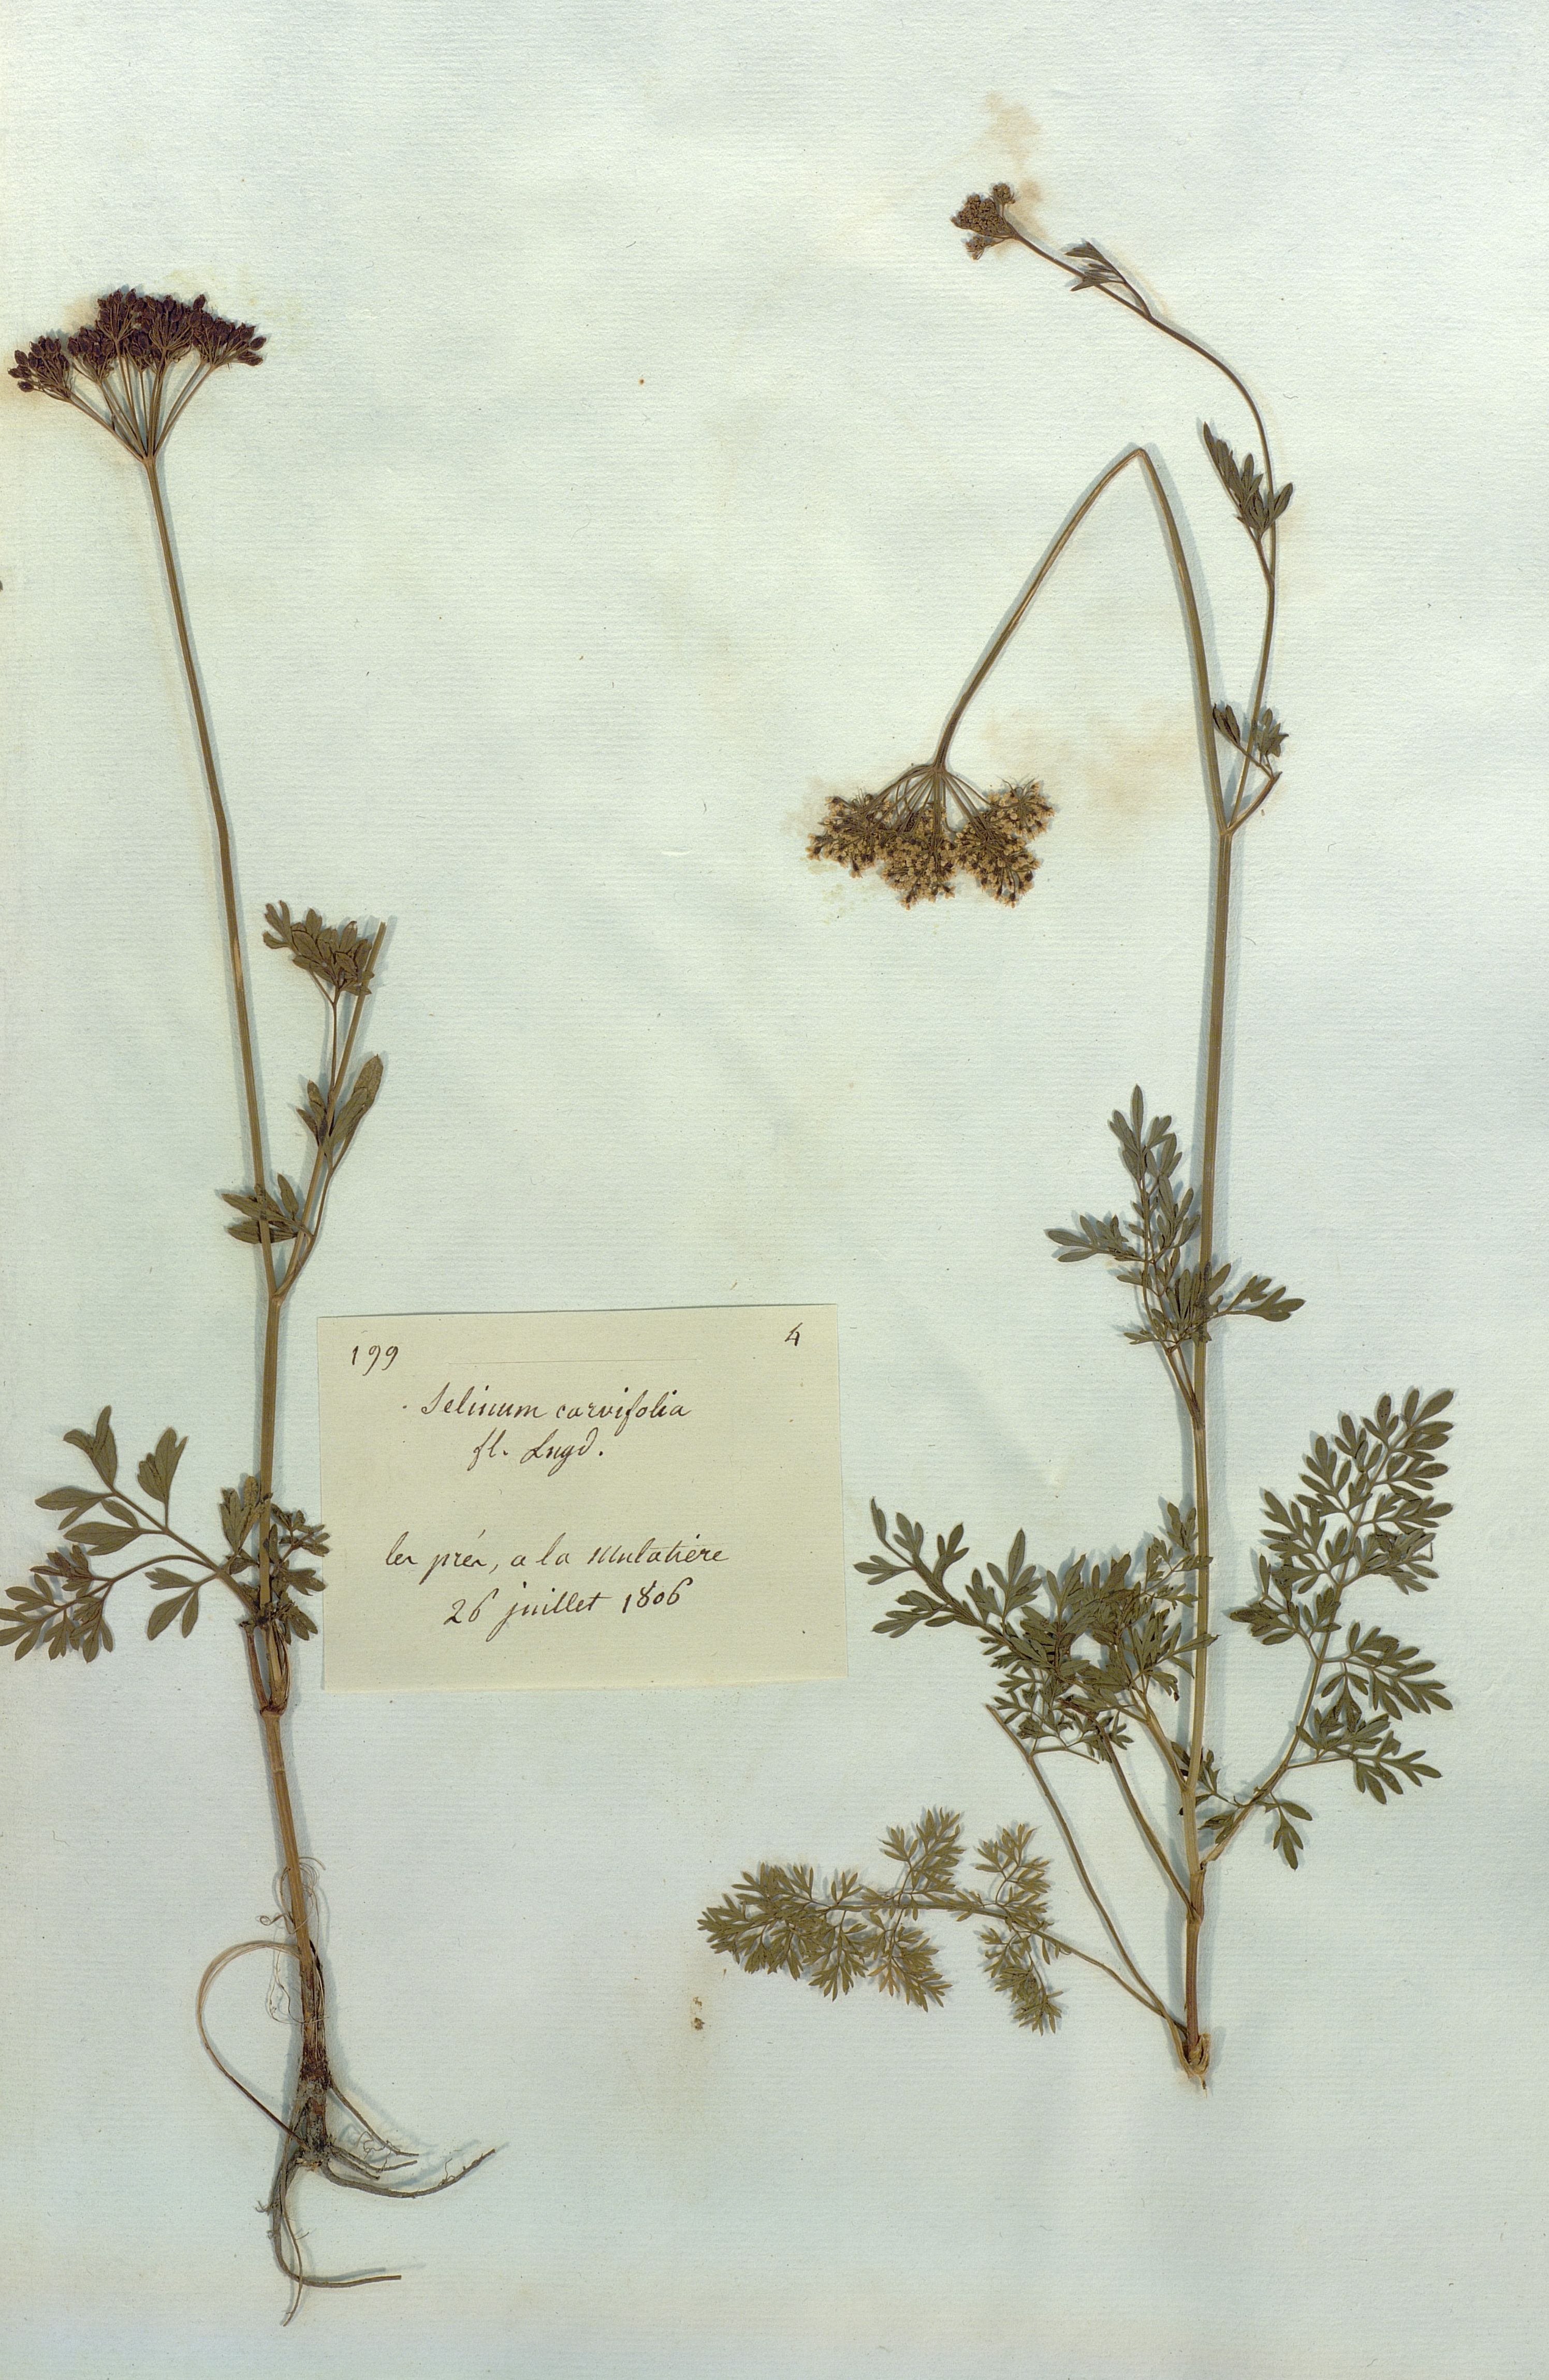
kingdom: Plantae
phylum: Tracheophyta
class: Magnoliopsida
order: Apiales
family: Apiaceae
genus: Selinum
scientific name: Selinum carvifolia
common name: Cambridge milk-parsley
